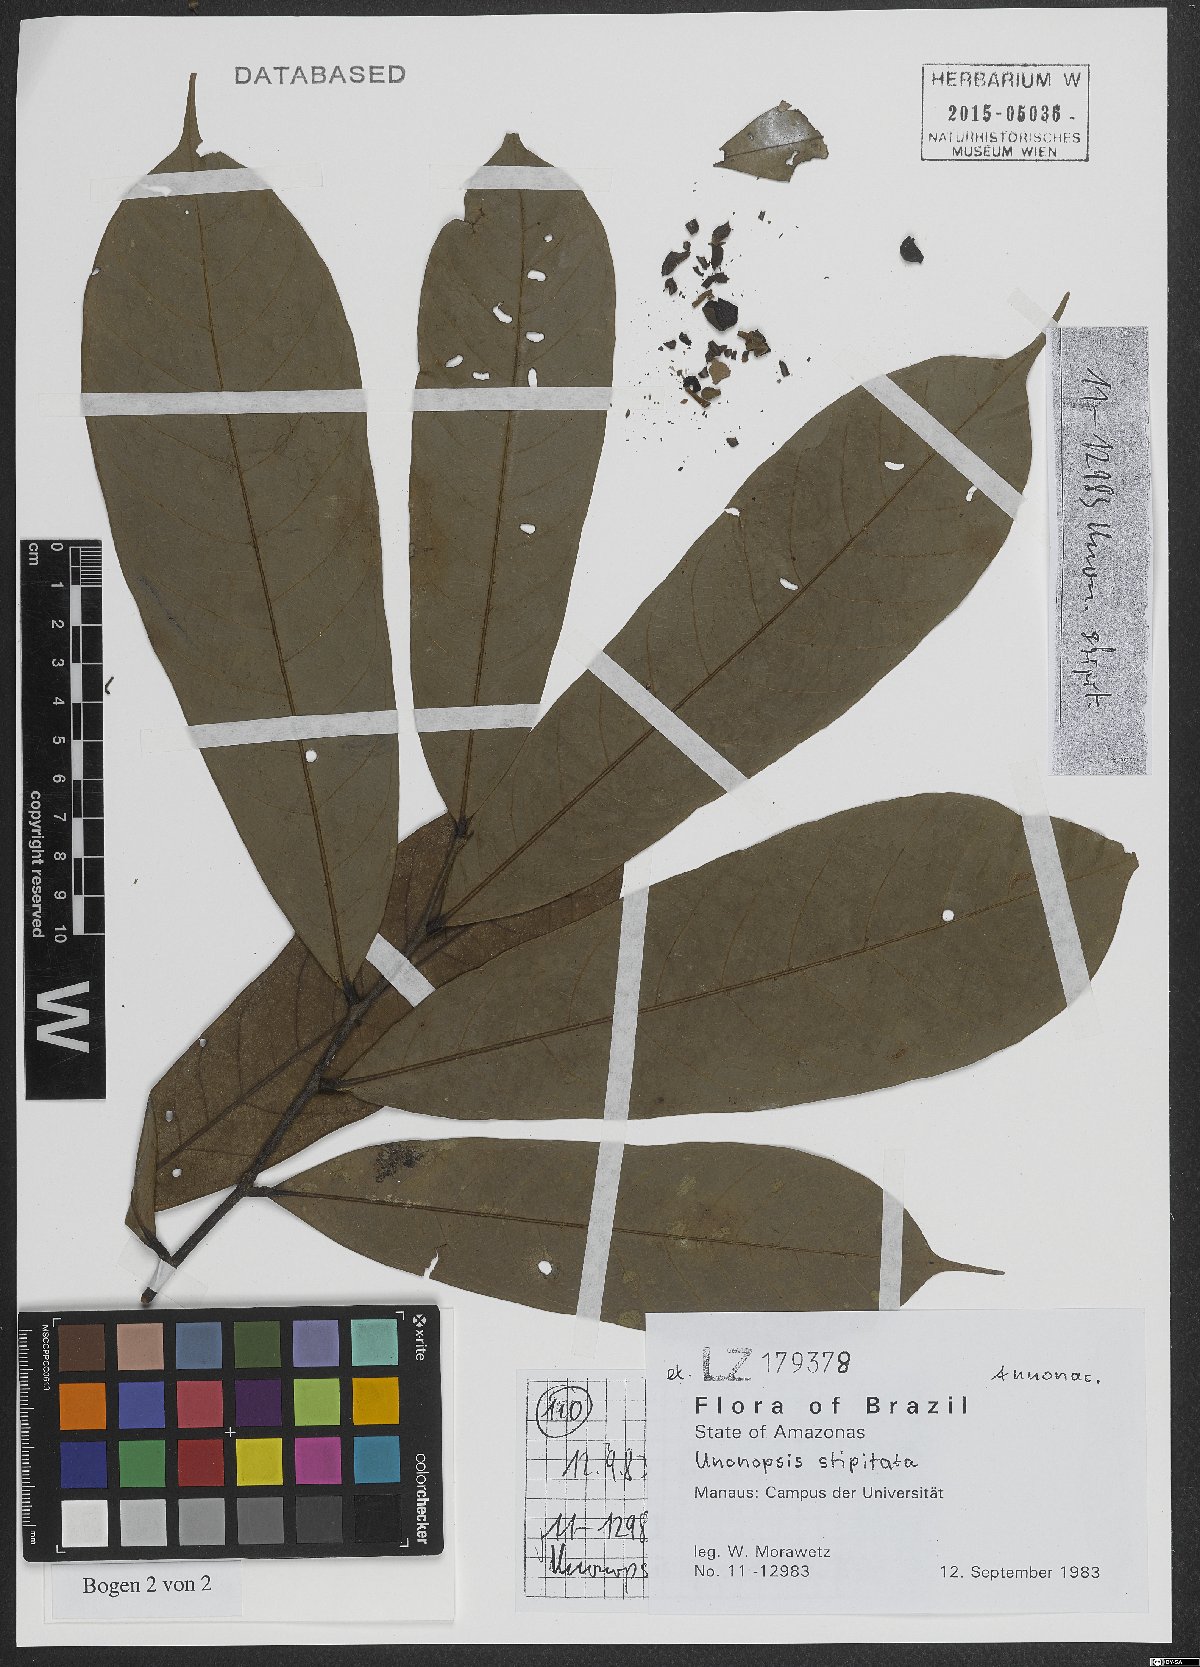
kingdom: Plantae
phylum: Tracheophyta
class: Magnoliopsida
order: Magnoliales
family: Annonaceae
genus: Unonopsis
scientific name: Unonopsis stipitata
